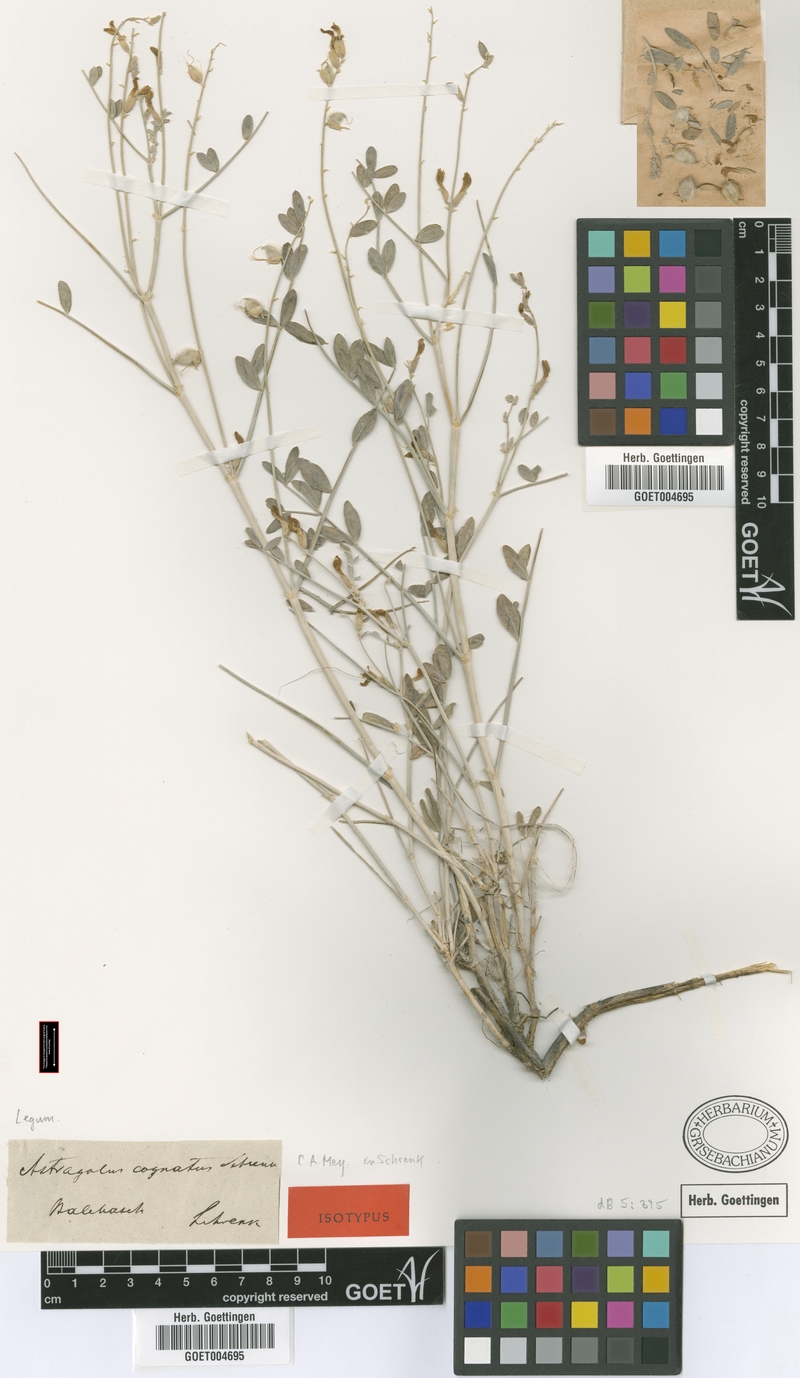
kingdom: Plantae
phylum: Tracheophyta
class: Magnoliopsida
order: Fabales
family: Fabaceae
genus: Astragalus
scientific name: Astragalus cognatus
